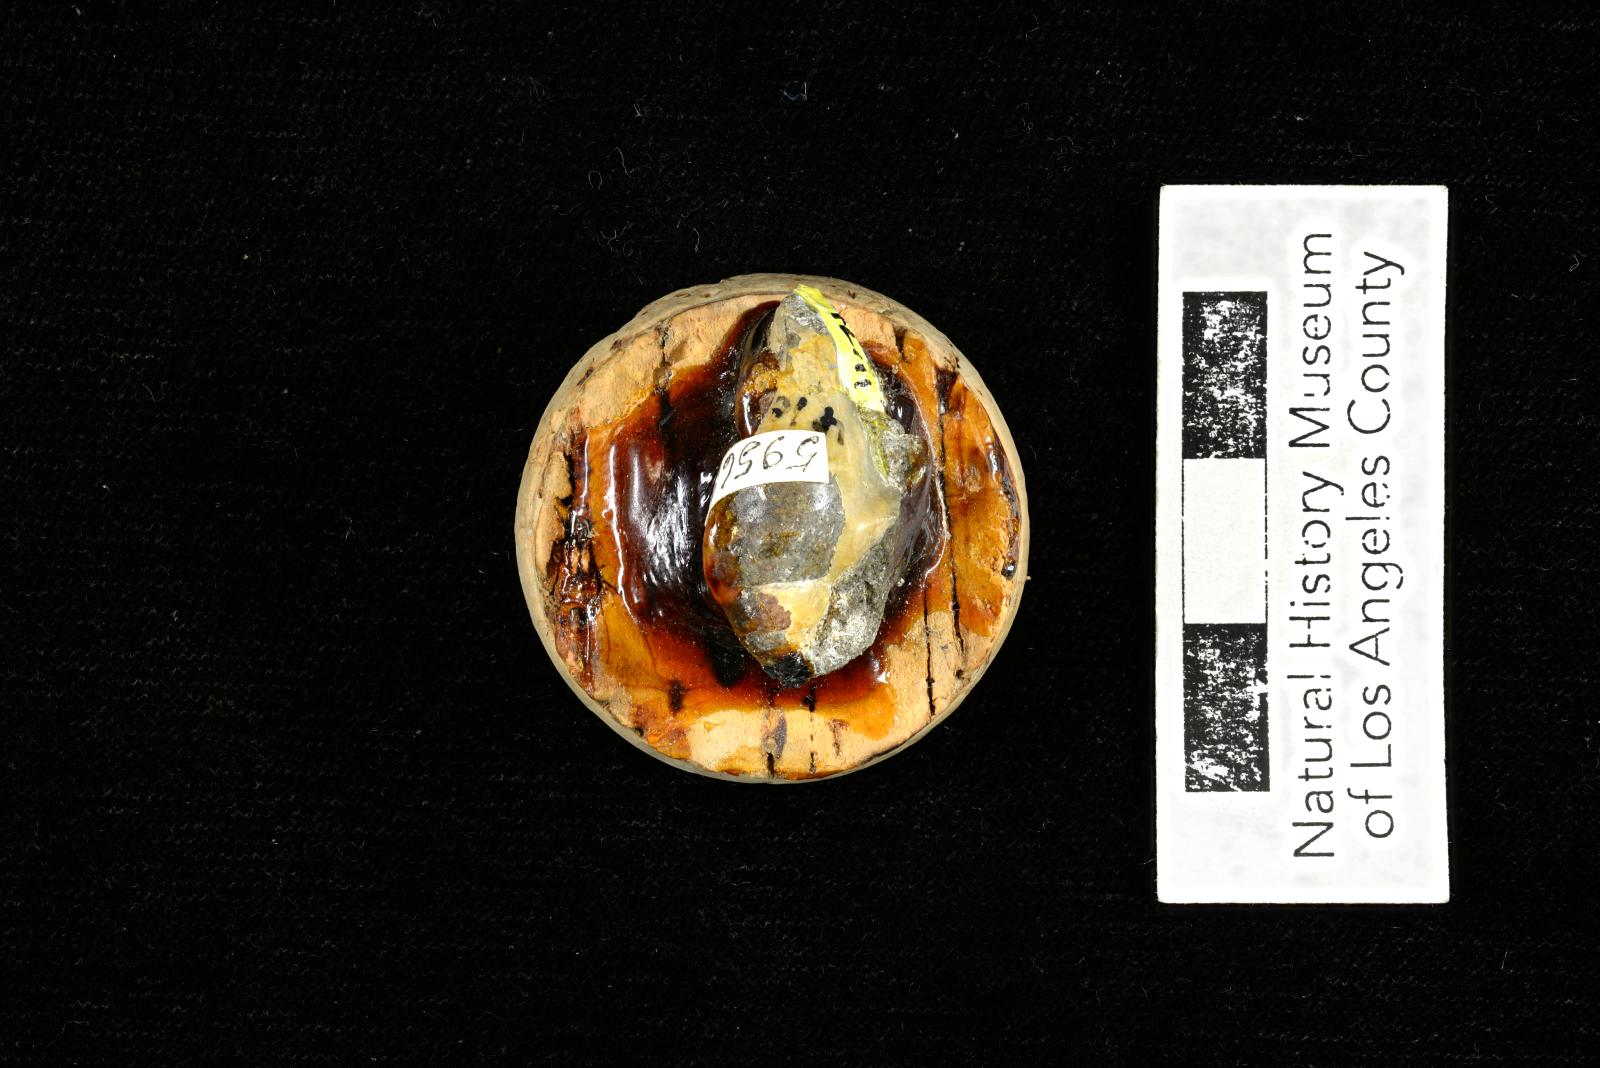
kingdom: Animalia
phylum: Mollusca
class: Gastropoda
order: Littorinimorpha
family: Aporrhaidae
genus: Pyktes
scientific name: Pyktes aspris
